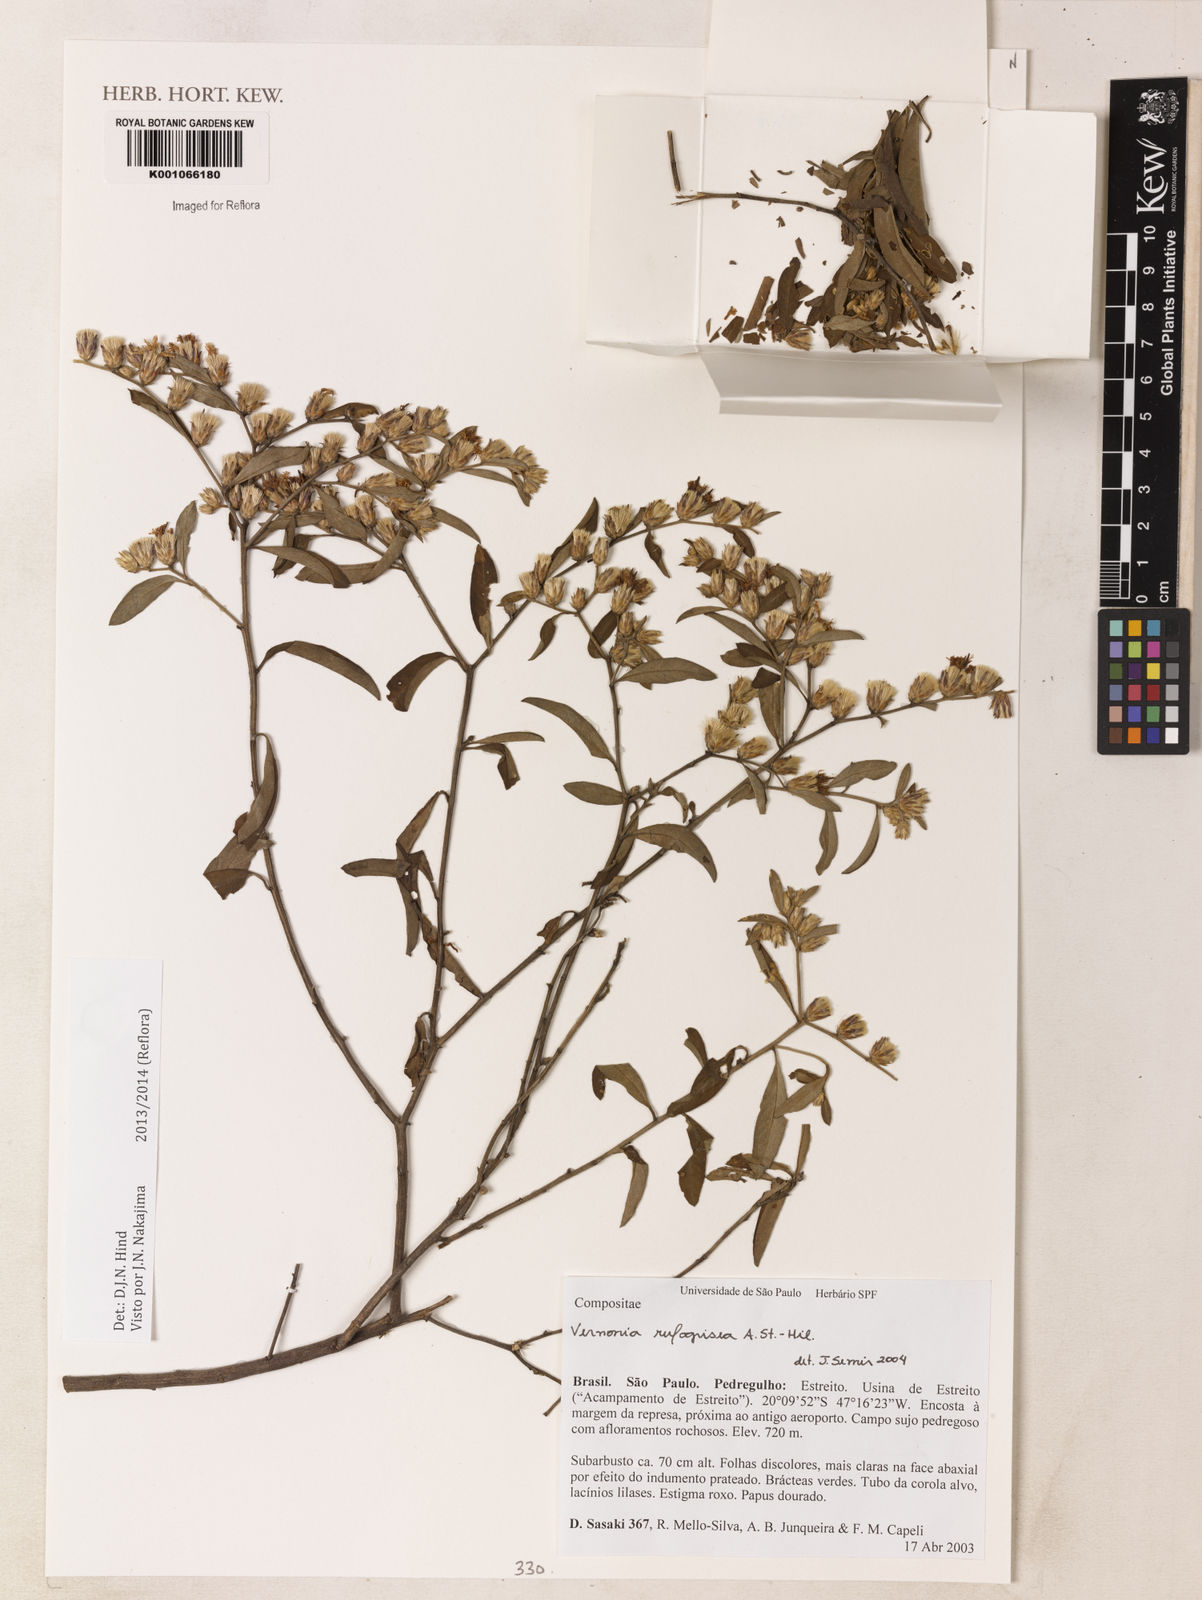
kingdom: Plantae
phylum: Tracheophyta
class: Magnoliopsida
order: Asterales
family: Asteraceae
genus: Lepidaploa
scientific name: Lepidaploa rufogrisea
